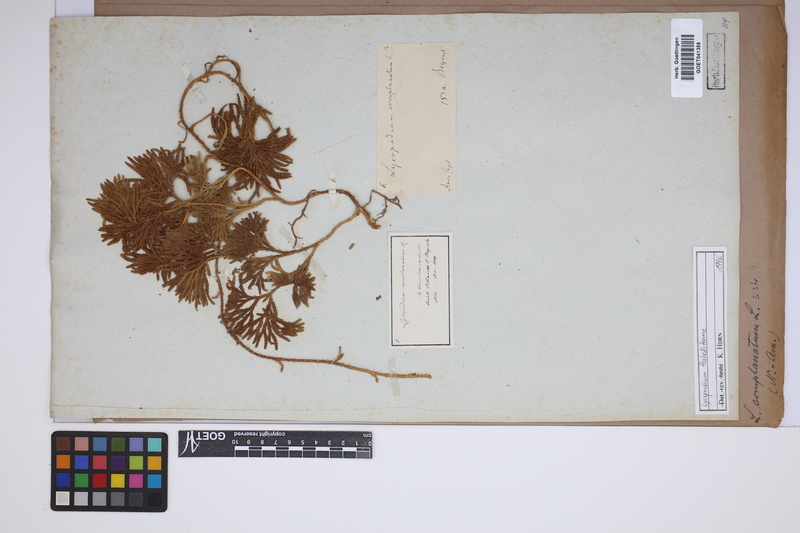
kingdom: Plantae
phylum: Tracheophyta
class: Lycopodiopsida
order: Lycopodiales
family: Lycopodiaceae
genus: Diphasiastrum
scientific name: Diphasiastrum digitatum
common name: Southern running-pine
